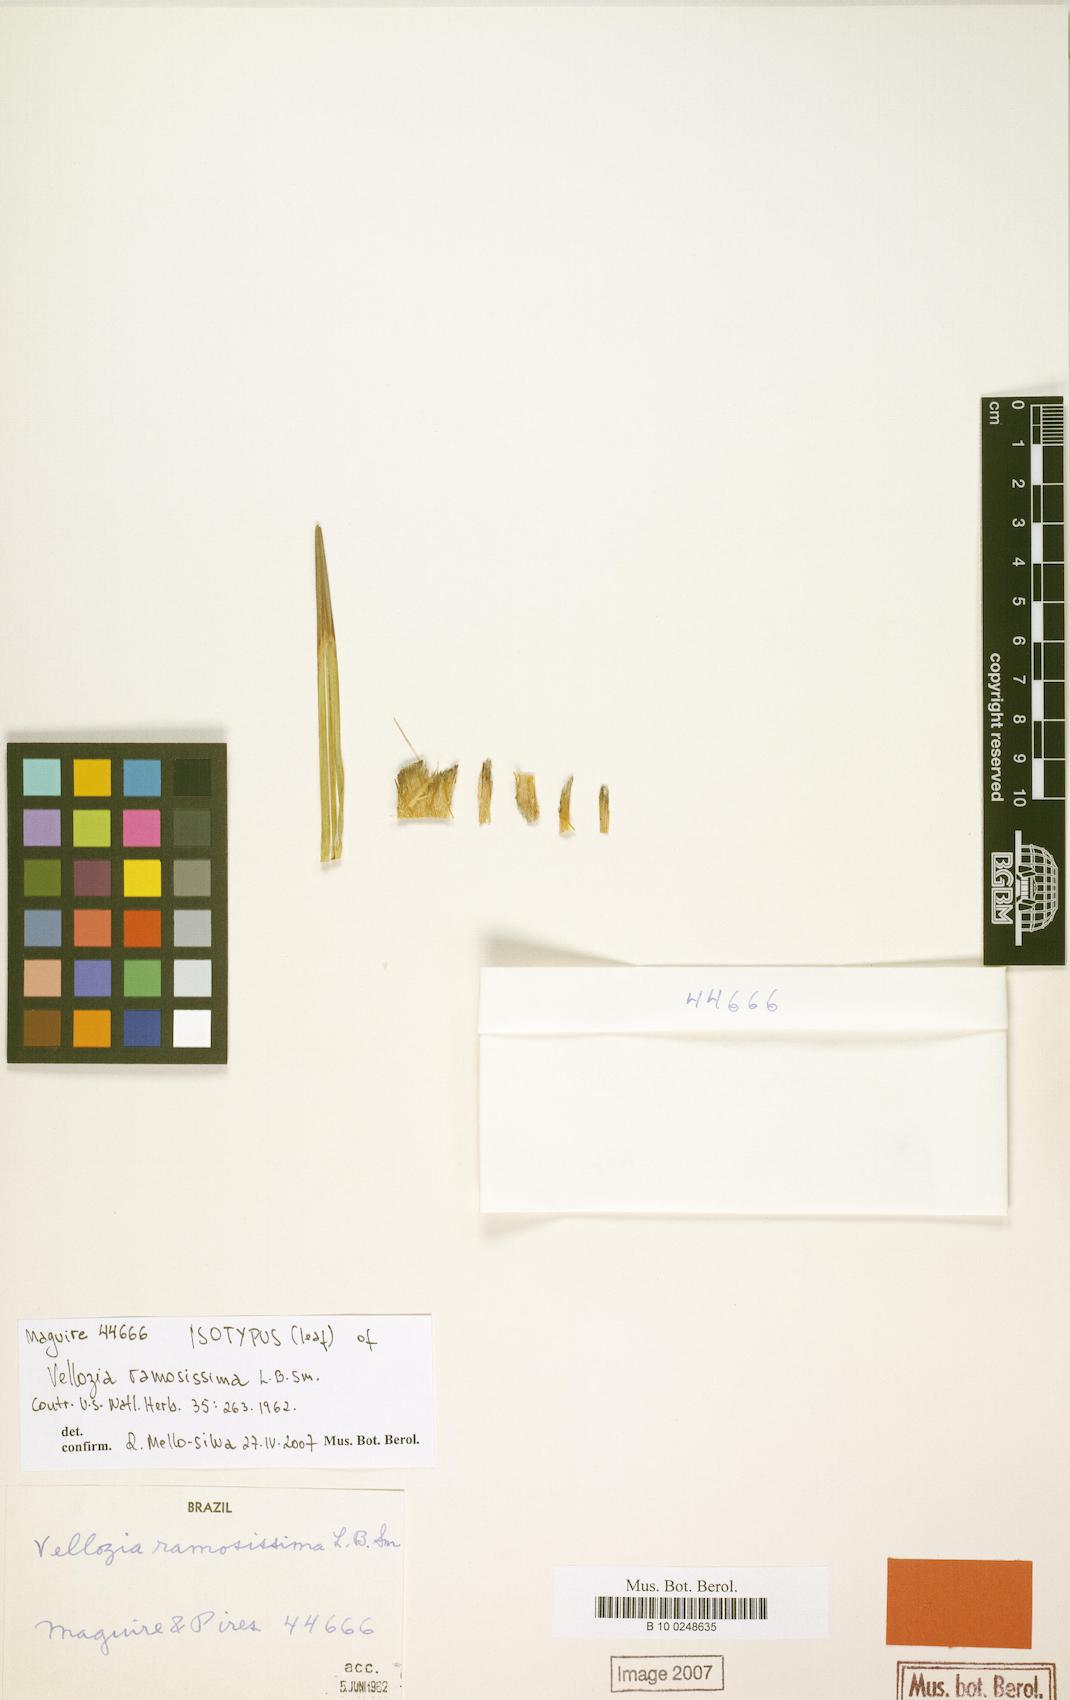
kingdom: Plantae
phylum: Tracheophyta
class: Liliopsida
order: Pandanales
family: Velloziaceae
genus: Vellozia
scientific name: Vellozia ramosissima
